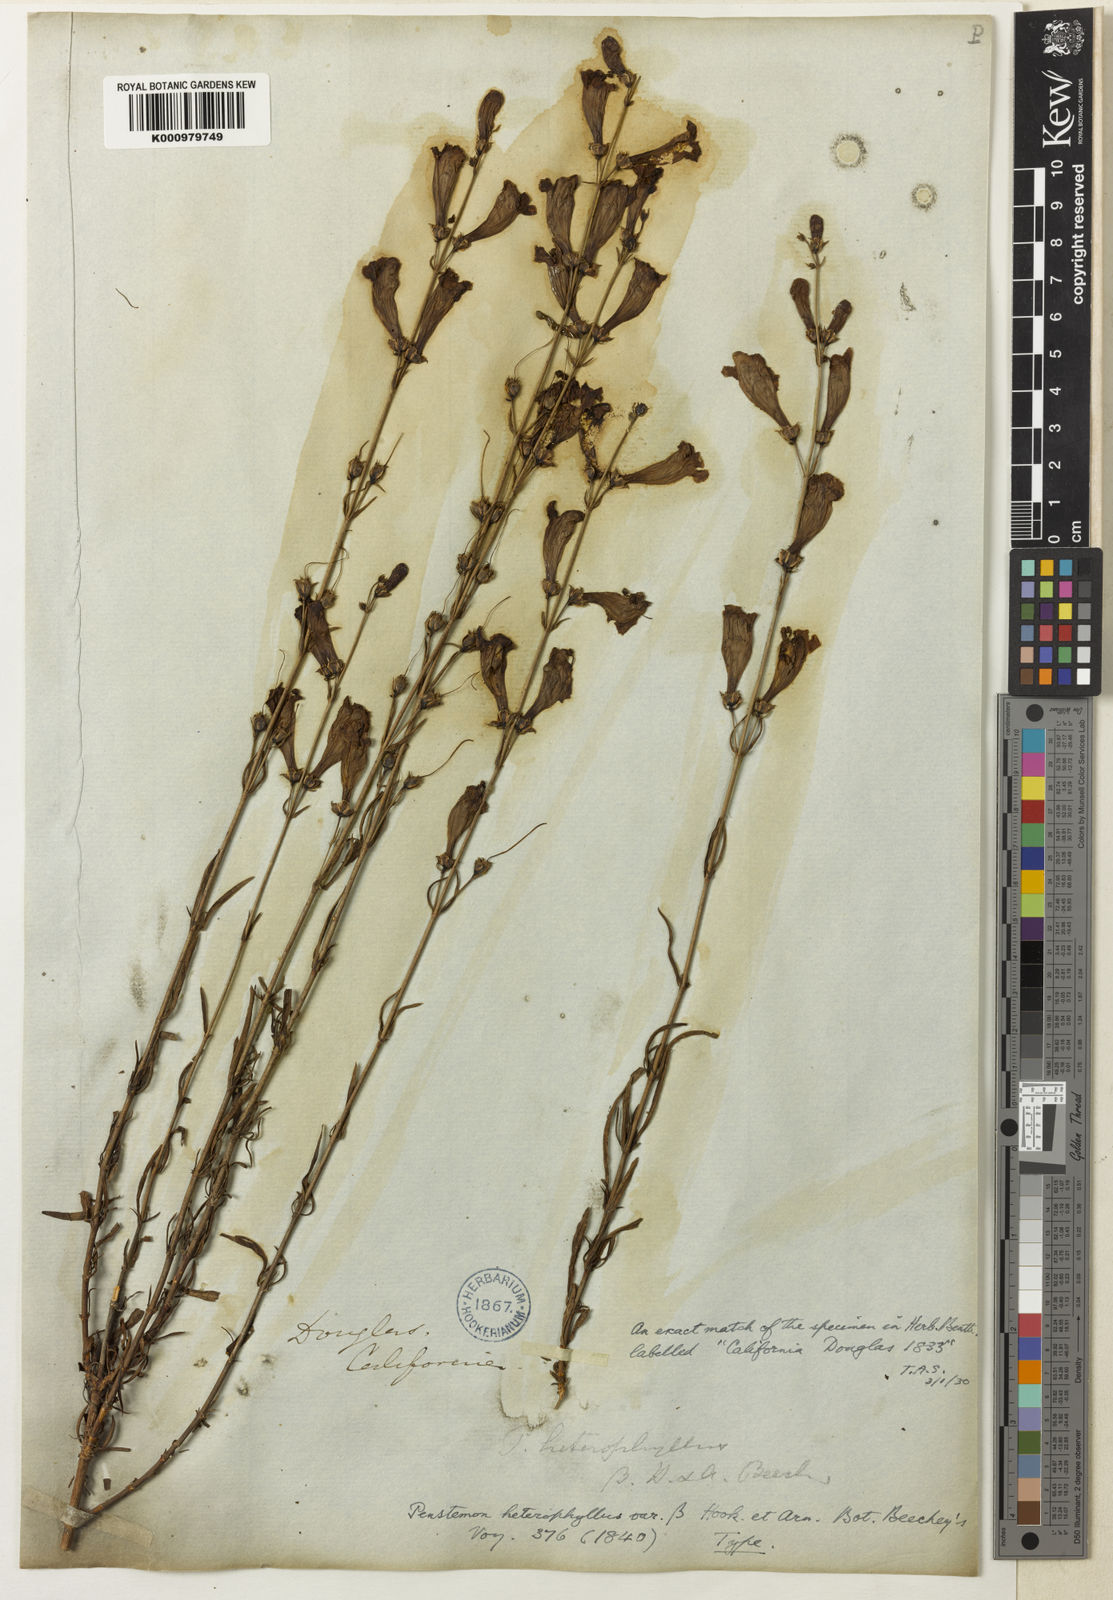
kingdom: Plantae
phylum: Tracheophyta
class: Magnoliopsida
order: Lamiales
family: Plantaginaceae
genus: Penstemon
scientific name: Penstemon heterophyllus
